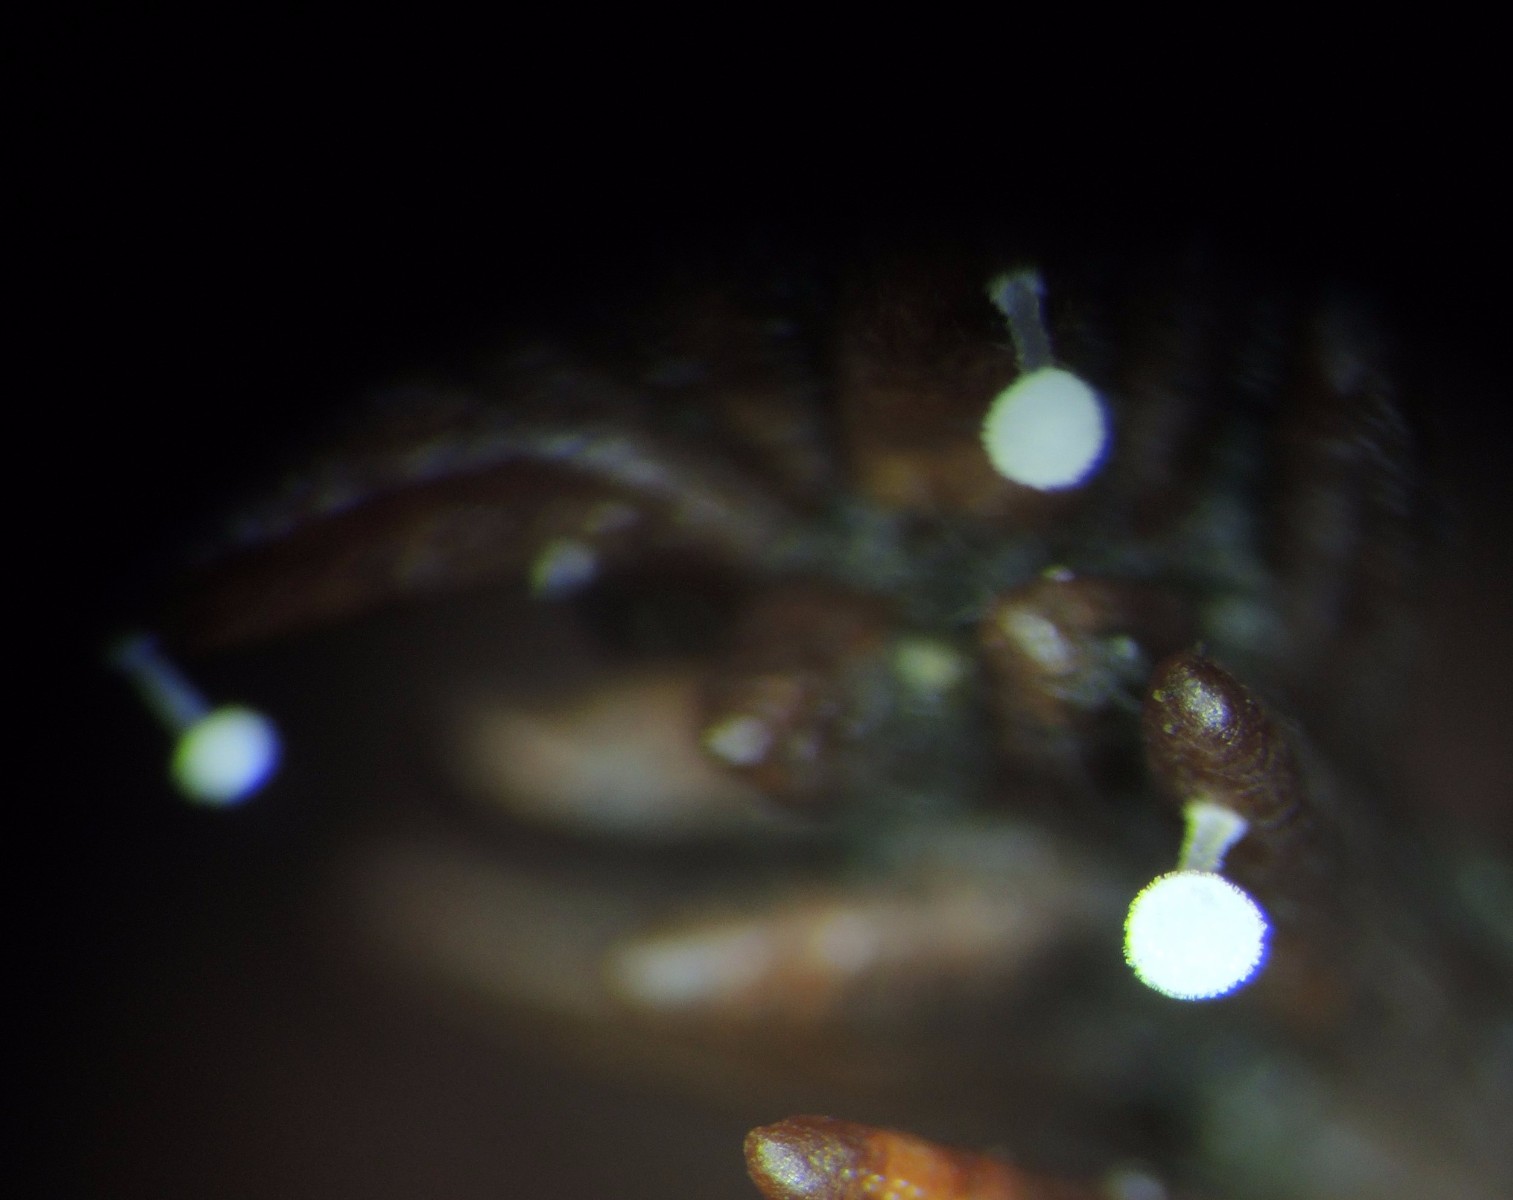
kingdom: Fungi
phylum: Basidiomycota
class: Agaricomycetes
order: Agaricales
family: Physalacriaceae
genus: Physalacria
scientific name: Physalacria cryptomeriae
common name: japangran-boldkølle
